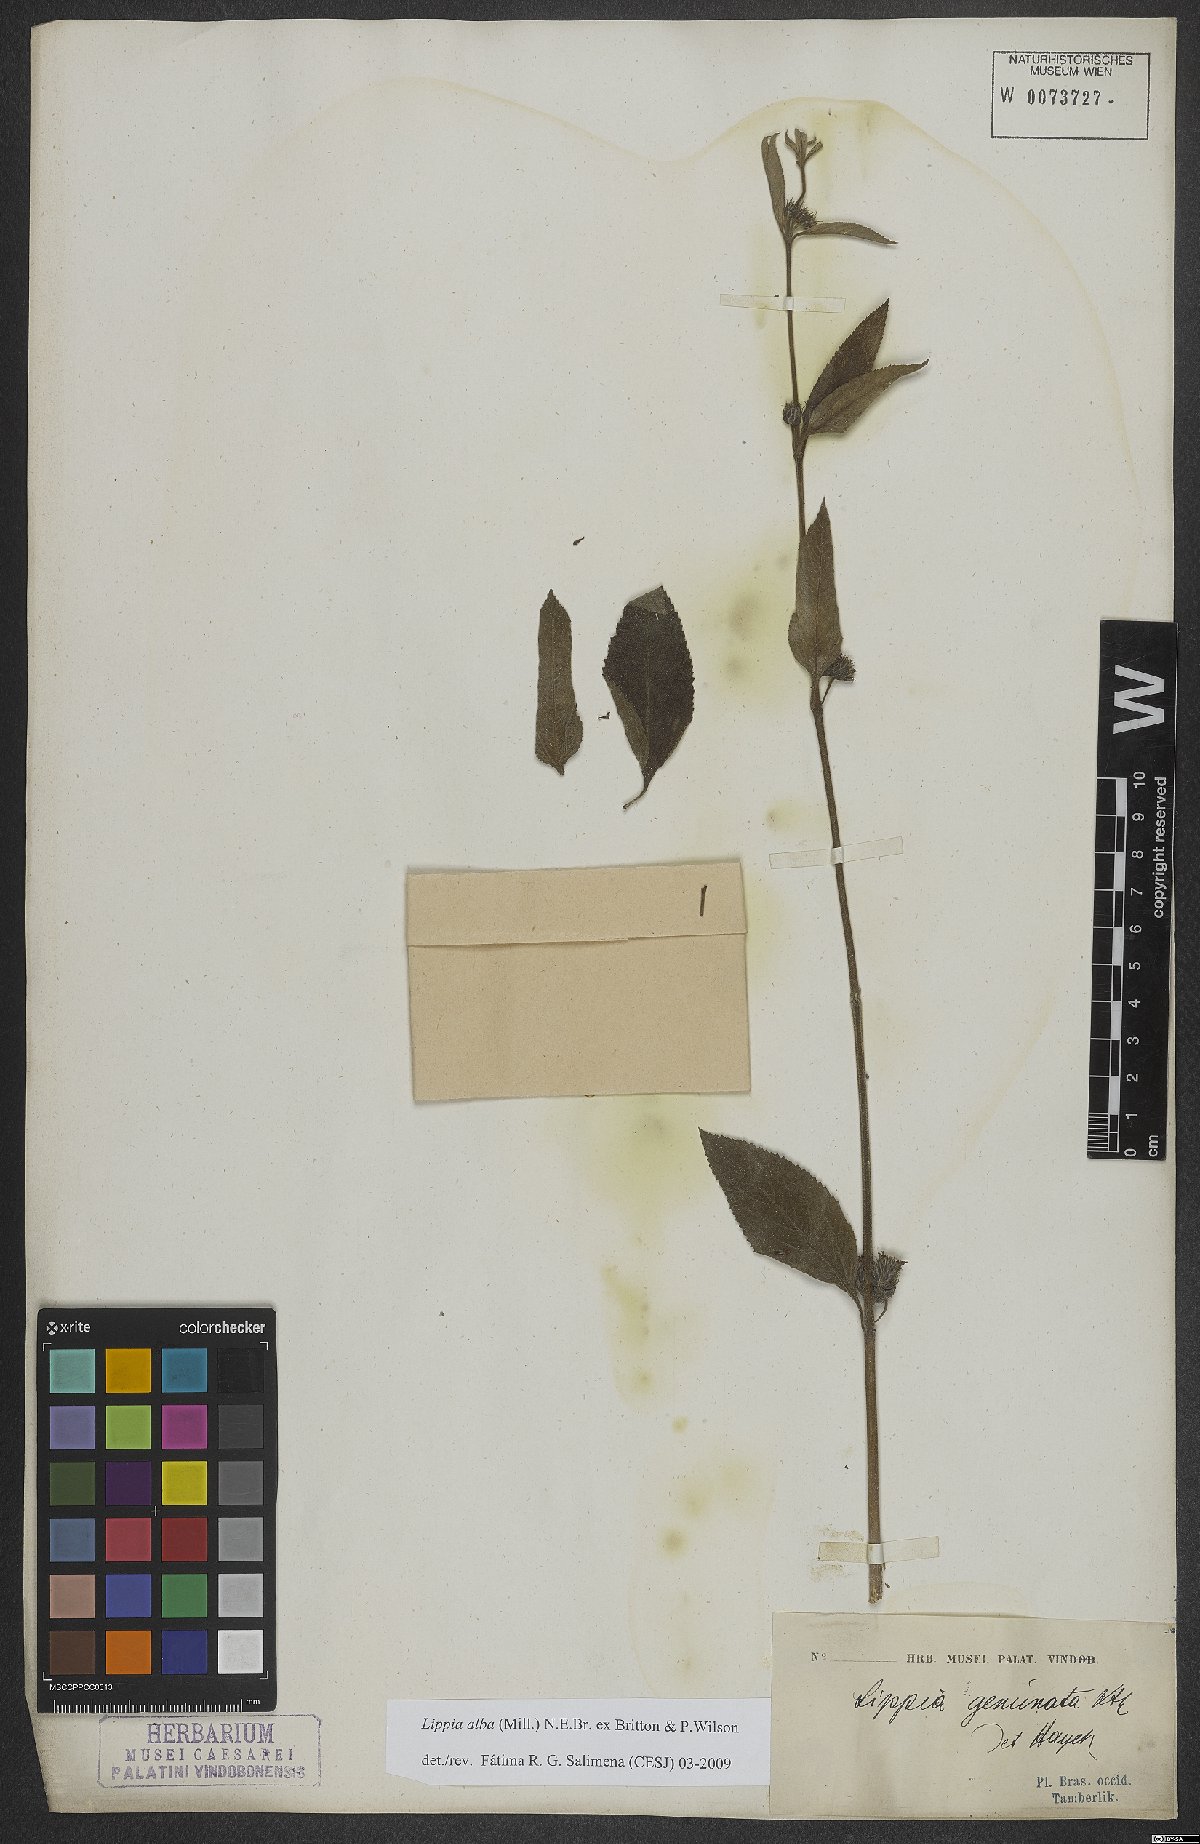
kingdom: Plantae
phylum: Tracheophyta
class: Magnoliopsida
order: Lamiales
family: Verbenaceae
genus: Lippia
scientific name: Lippia alba
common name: Bushy matgrass
